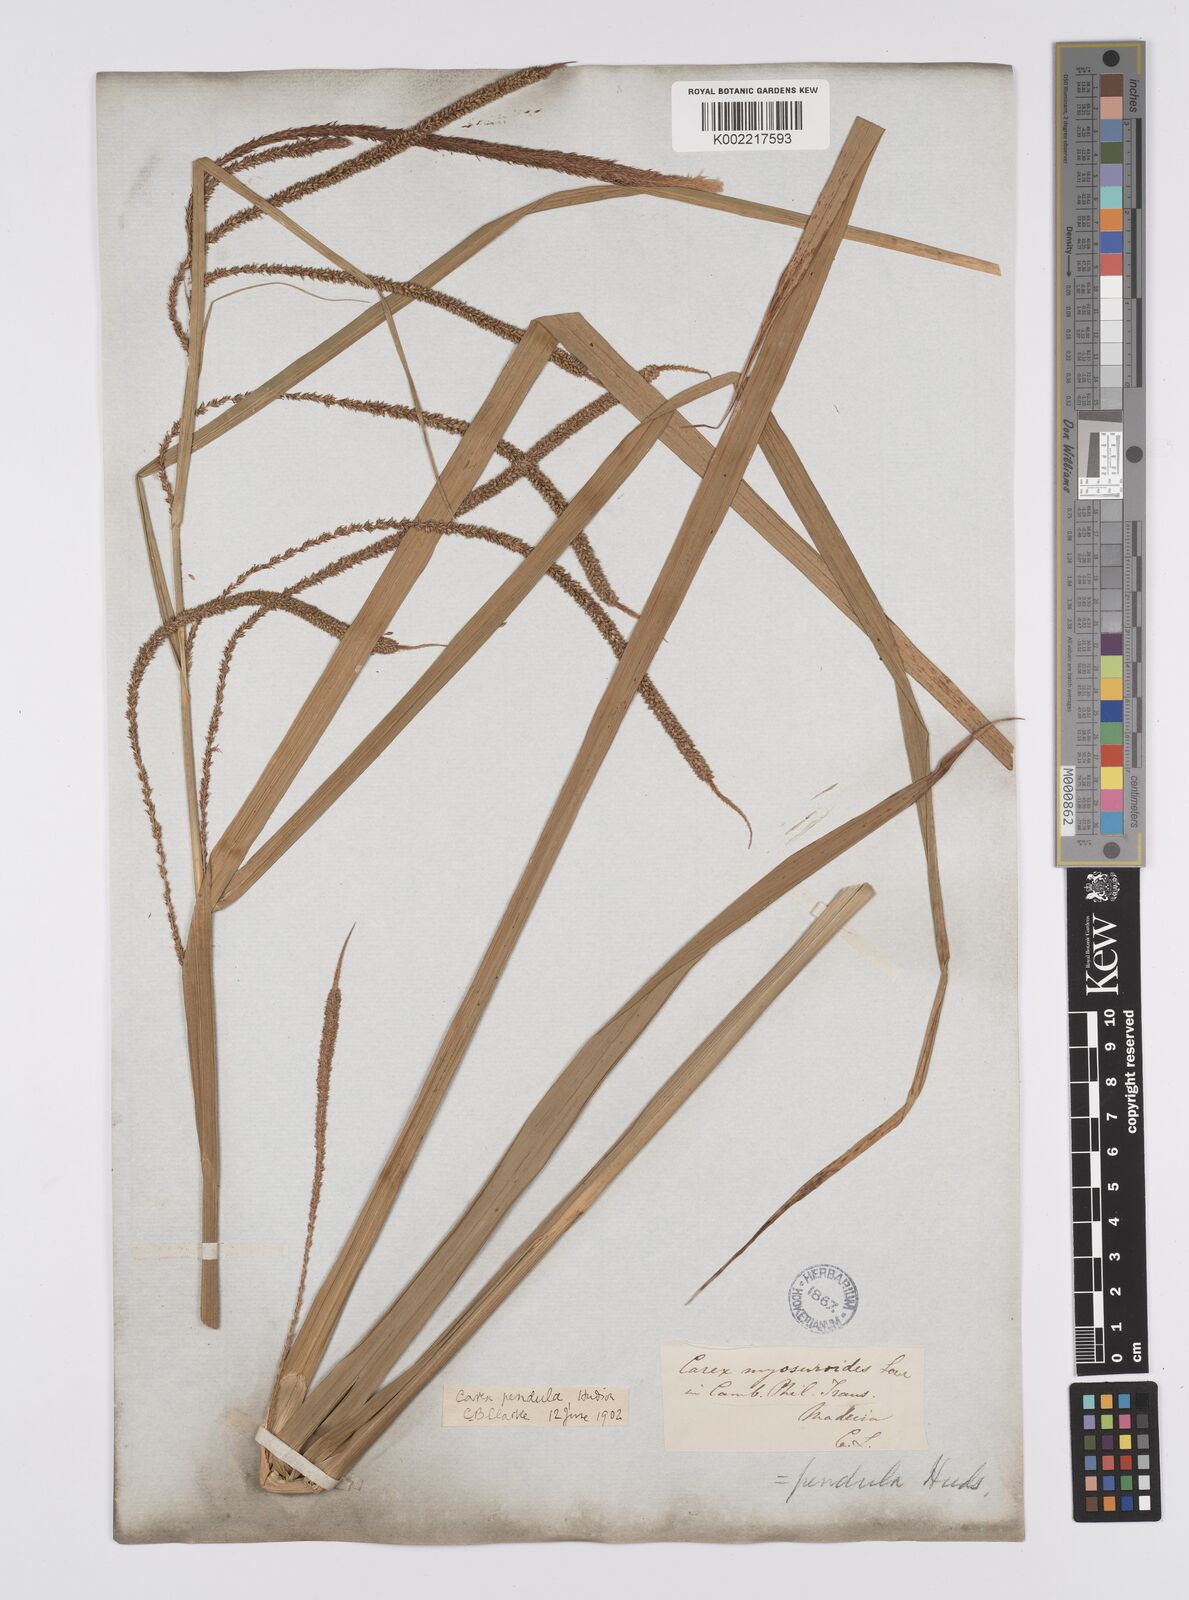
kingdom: Plantae
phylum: Tracheophyta
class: Liliopsida
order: Poales
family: Cyperaceae
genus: Carex
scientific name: Carex pendula
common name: Pendulous sedge
